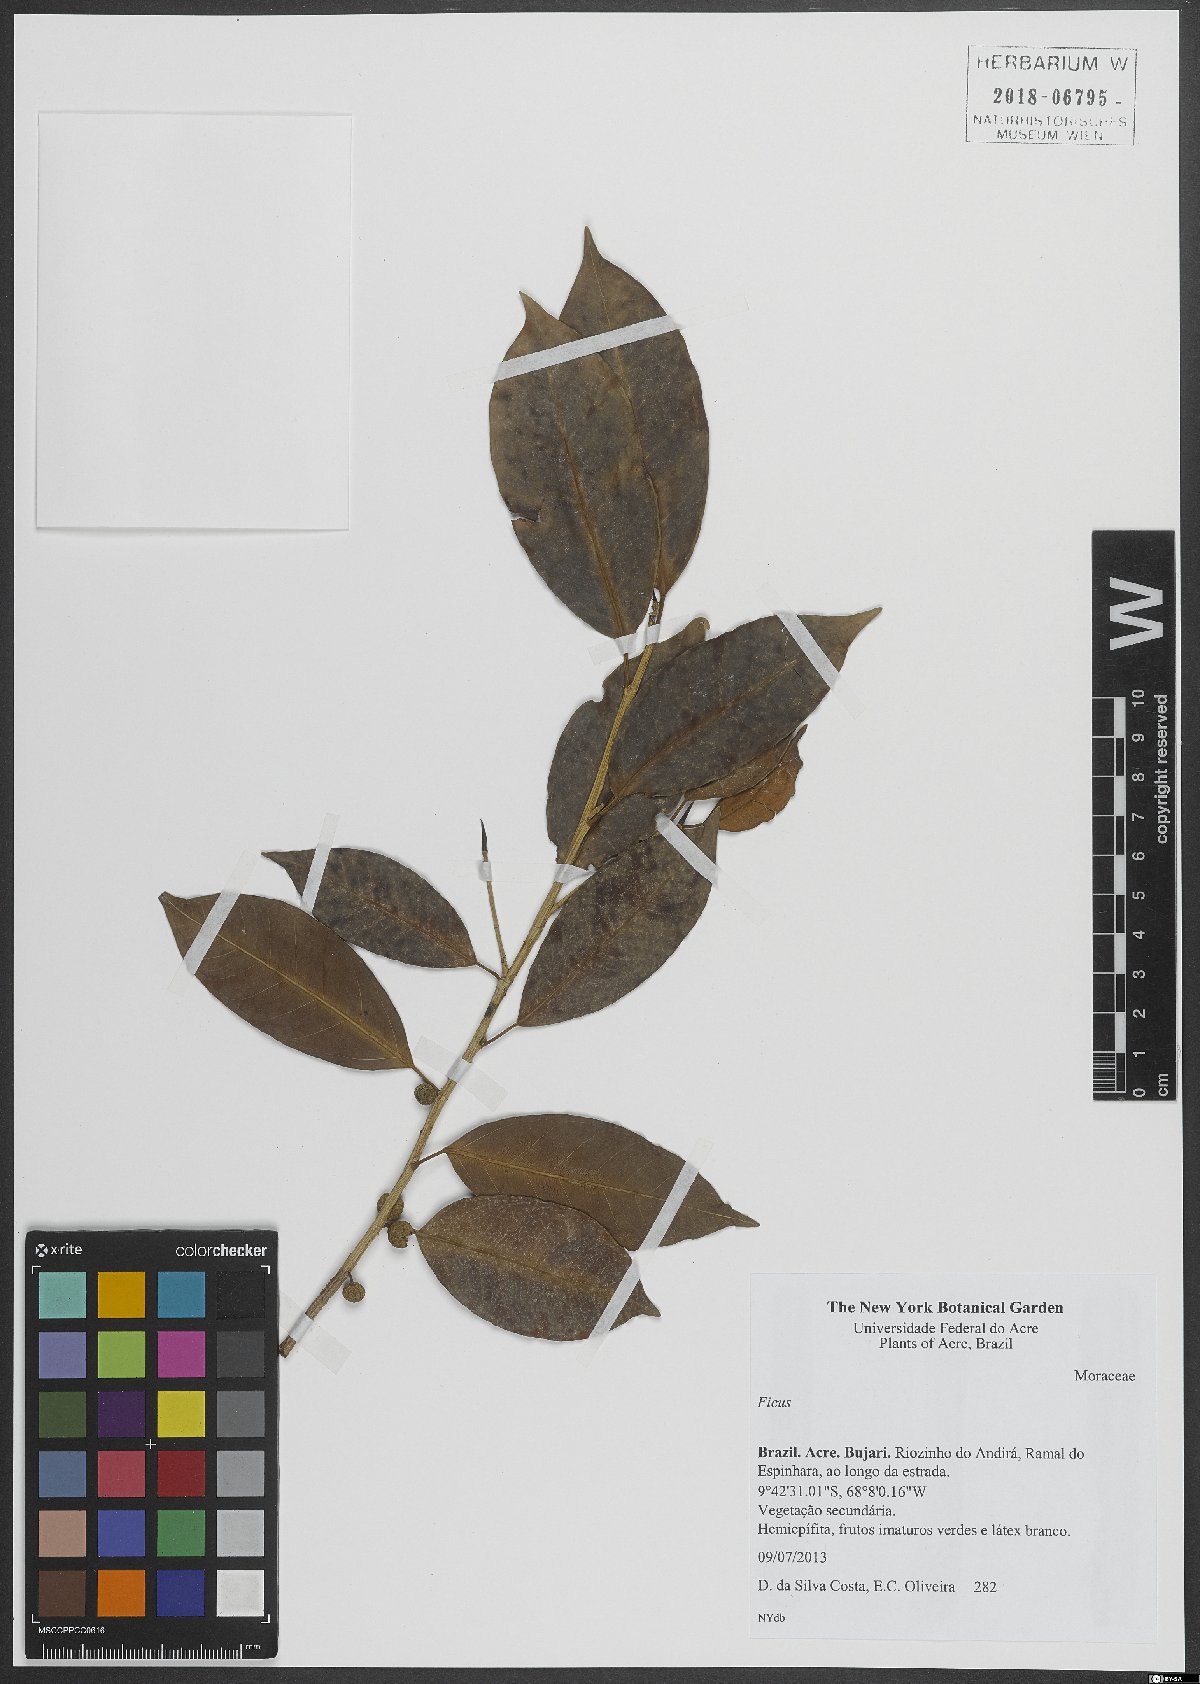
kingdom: Plantae
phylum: Tracheophyta
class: Magnoliopsida
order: Rosales
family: Moraceae
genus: Ficus
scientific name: Ficus
